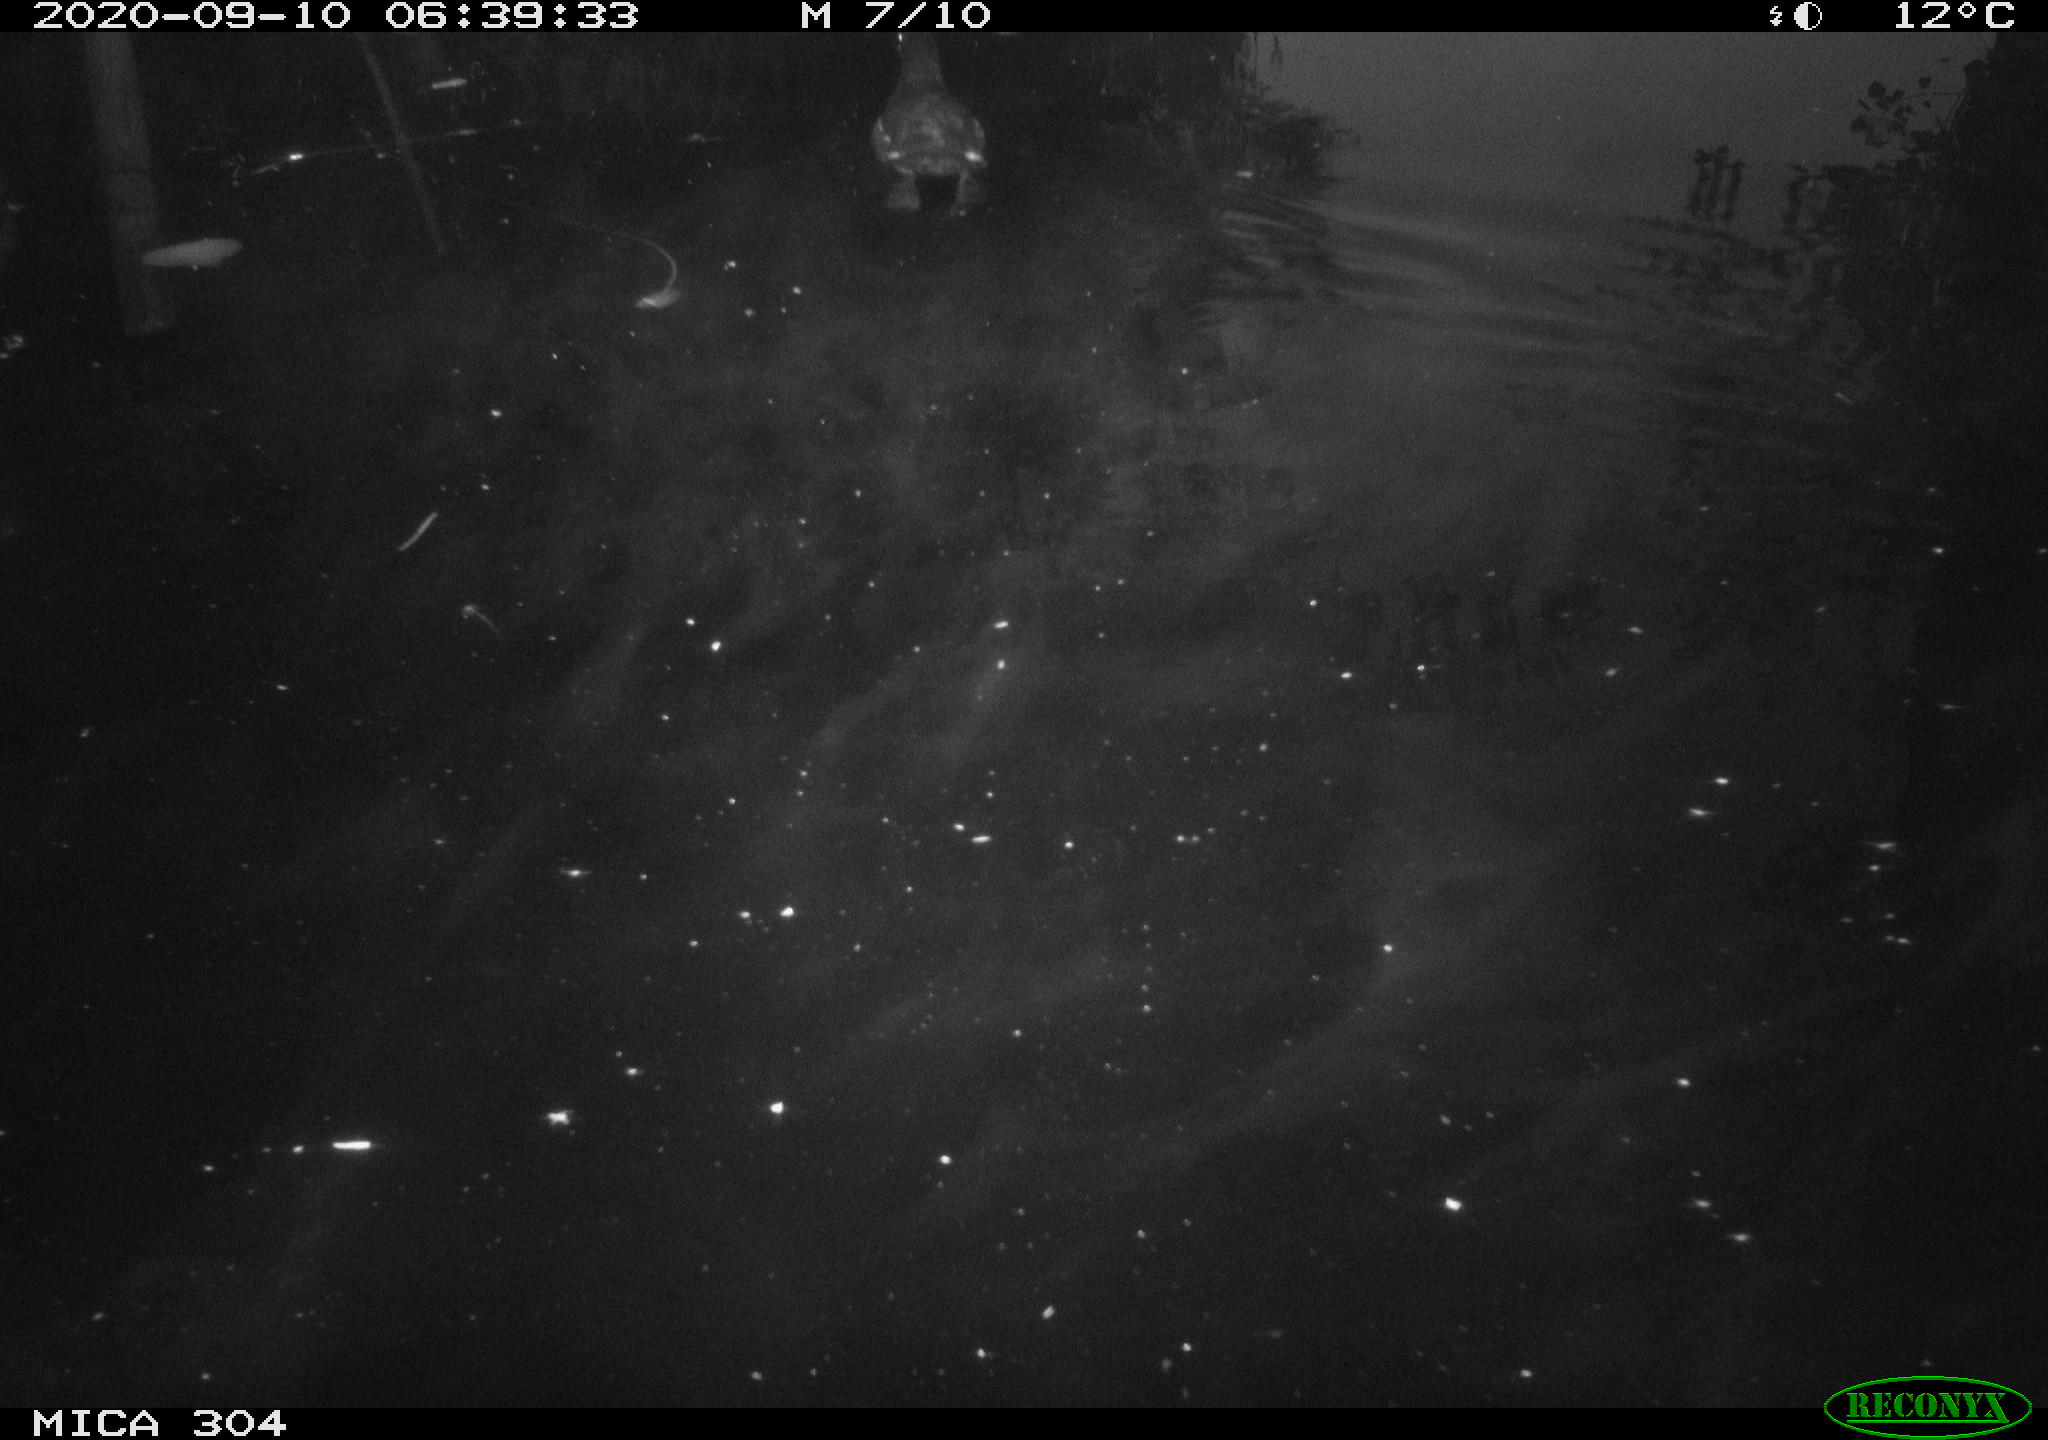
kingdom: Animalia
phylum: Chordata
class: Aves
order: Gruiformes
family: Rallidae
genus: Gallinula
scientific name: Gallinula chloropus
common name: Common moorhen
